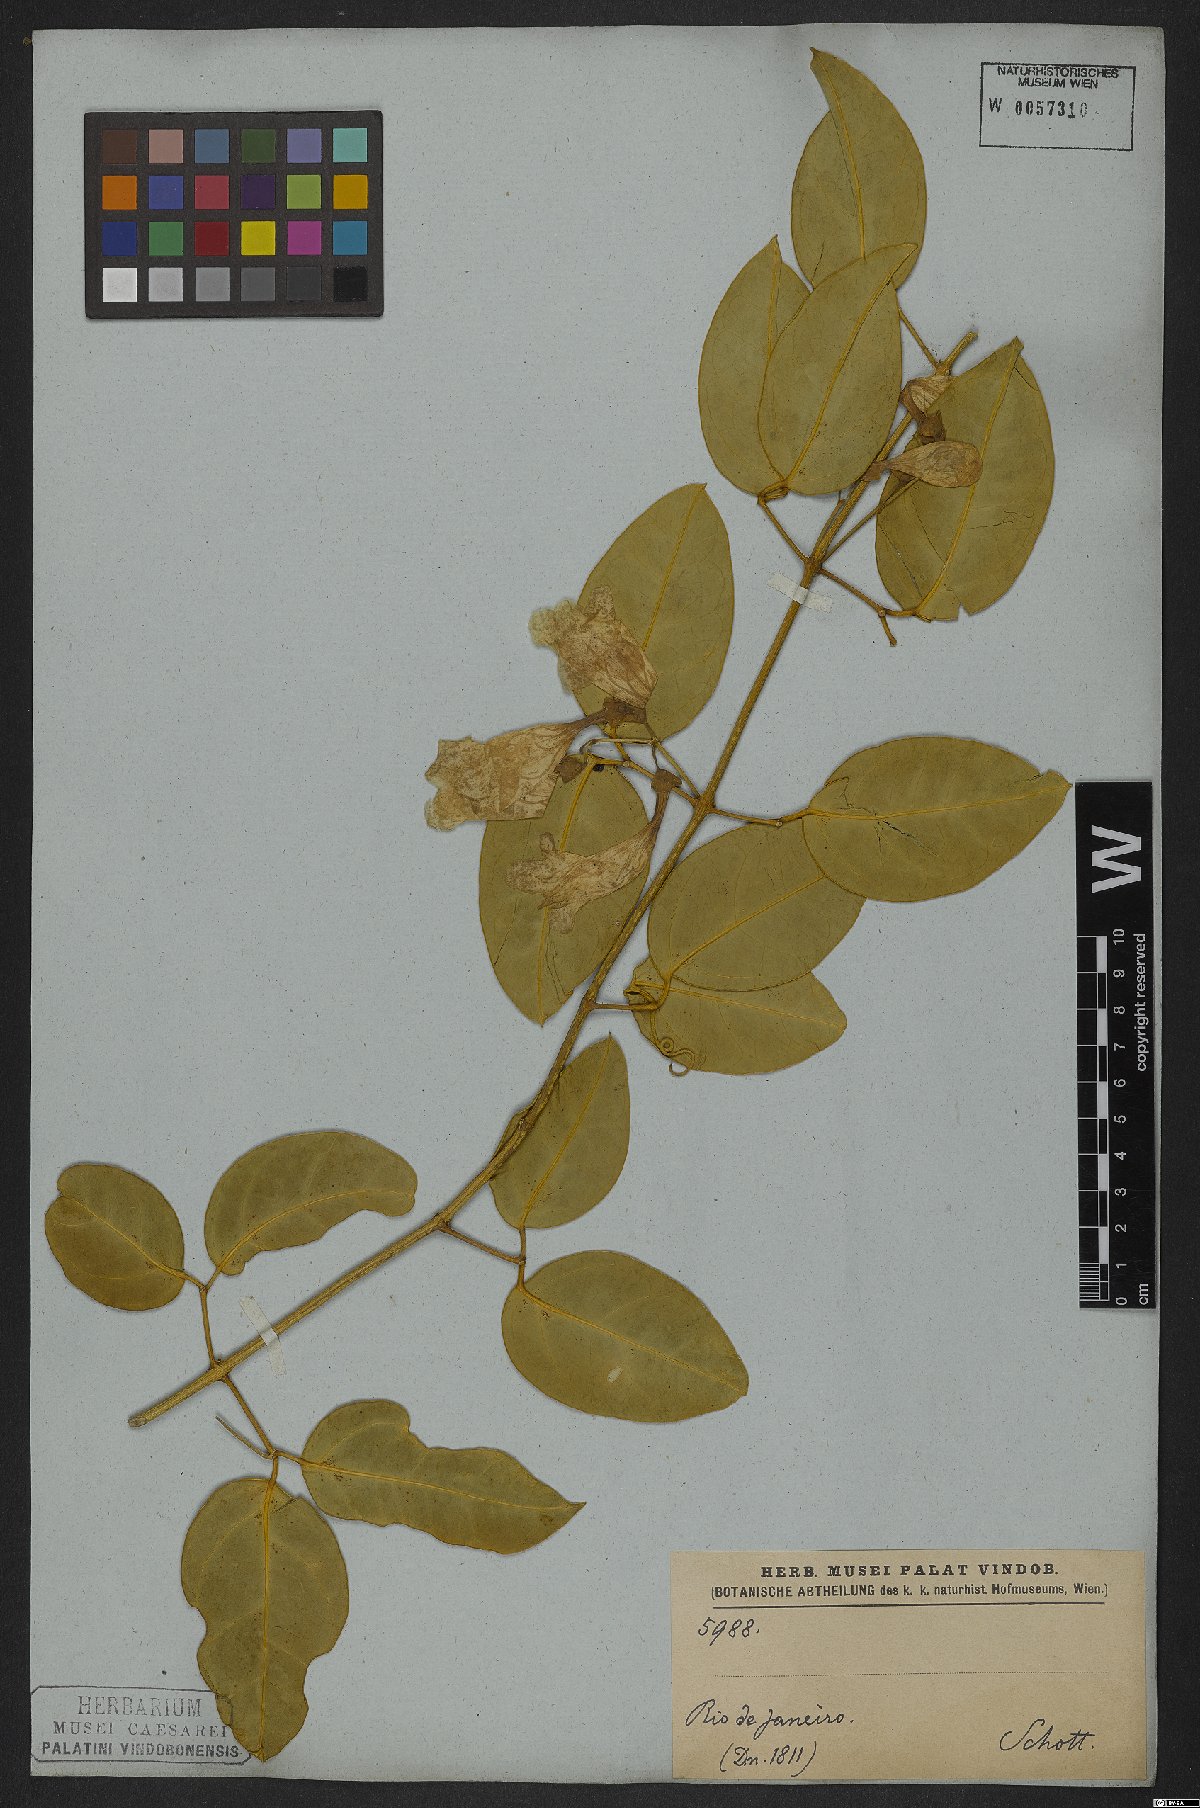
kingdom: Plantae
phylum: Tracheophyta
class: Magnoliopsida
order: Lamiales
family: Bignoniaceae
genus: Anemopaegma
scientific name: Anemopaegma chamberlaynii
